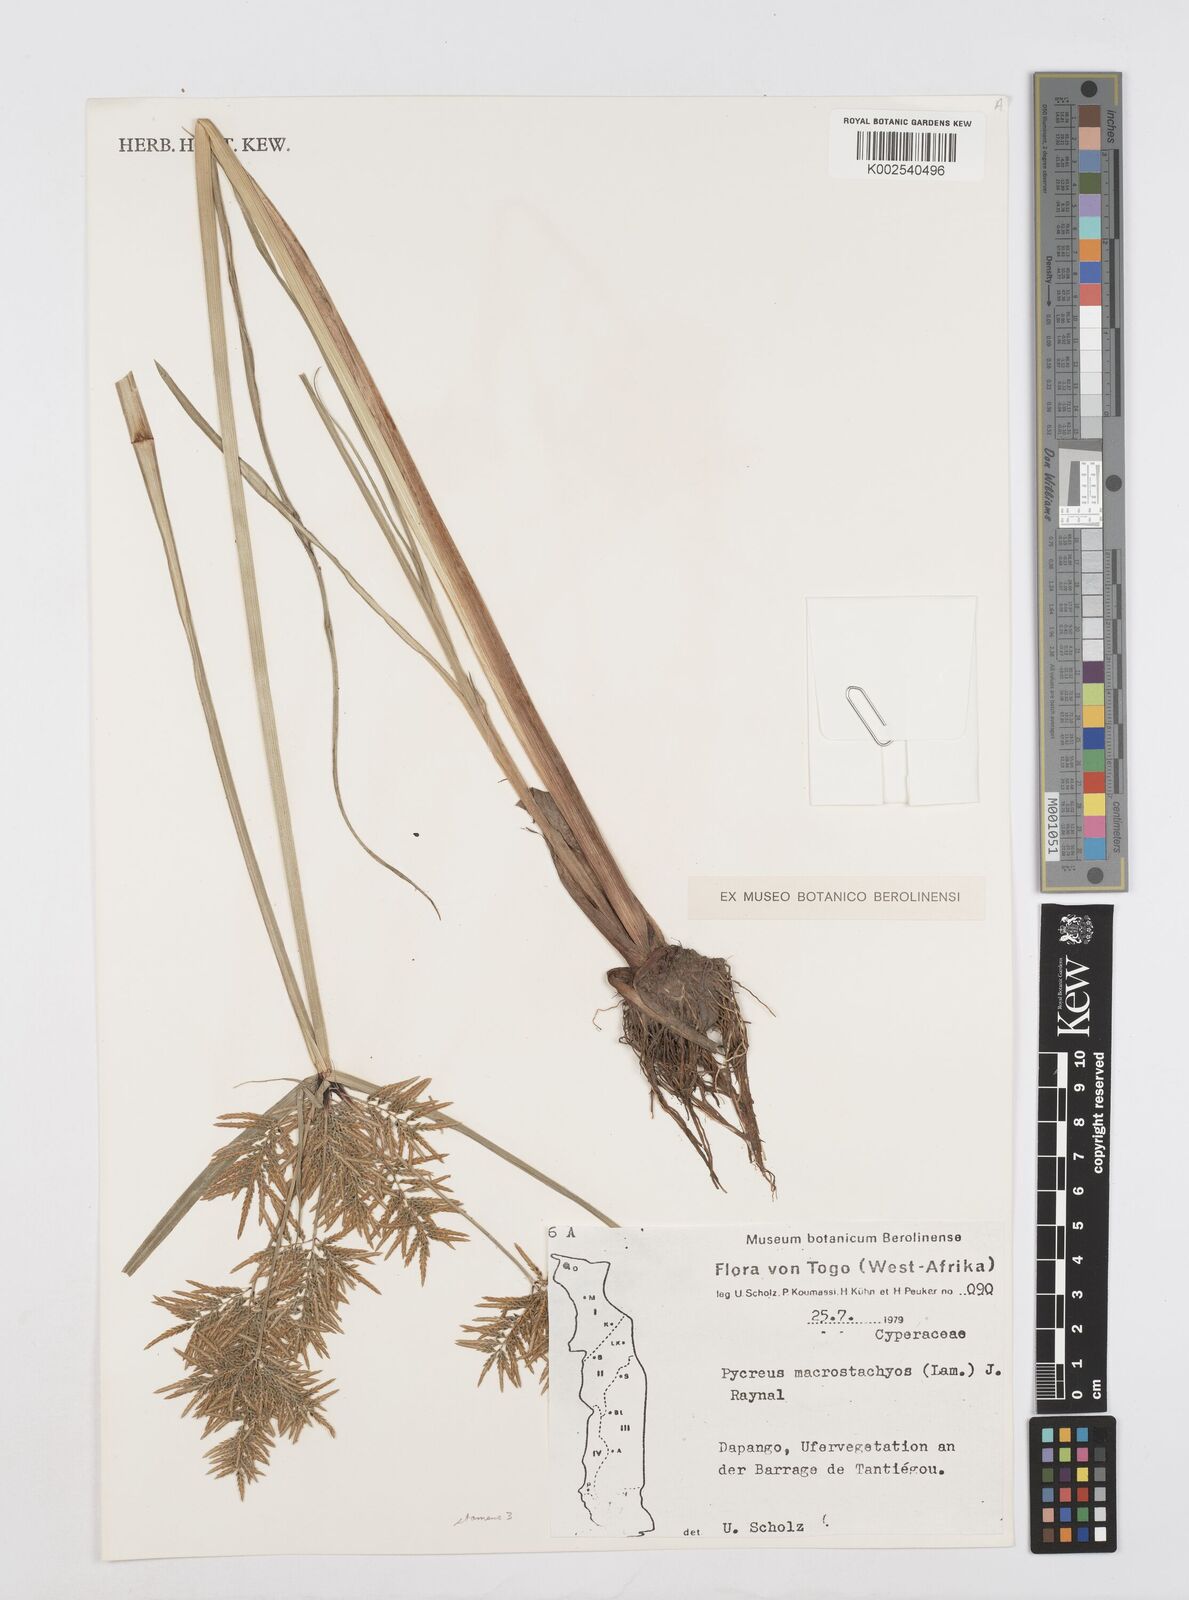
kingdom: Plantae
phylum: Tracheophyta
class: Liliopsida
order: Poales
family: Cyperaceae
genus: Cyperus
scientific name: Cyperus macrostachyos
